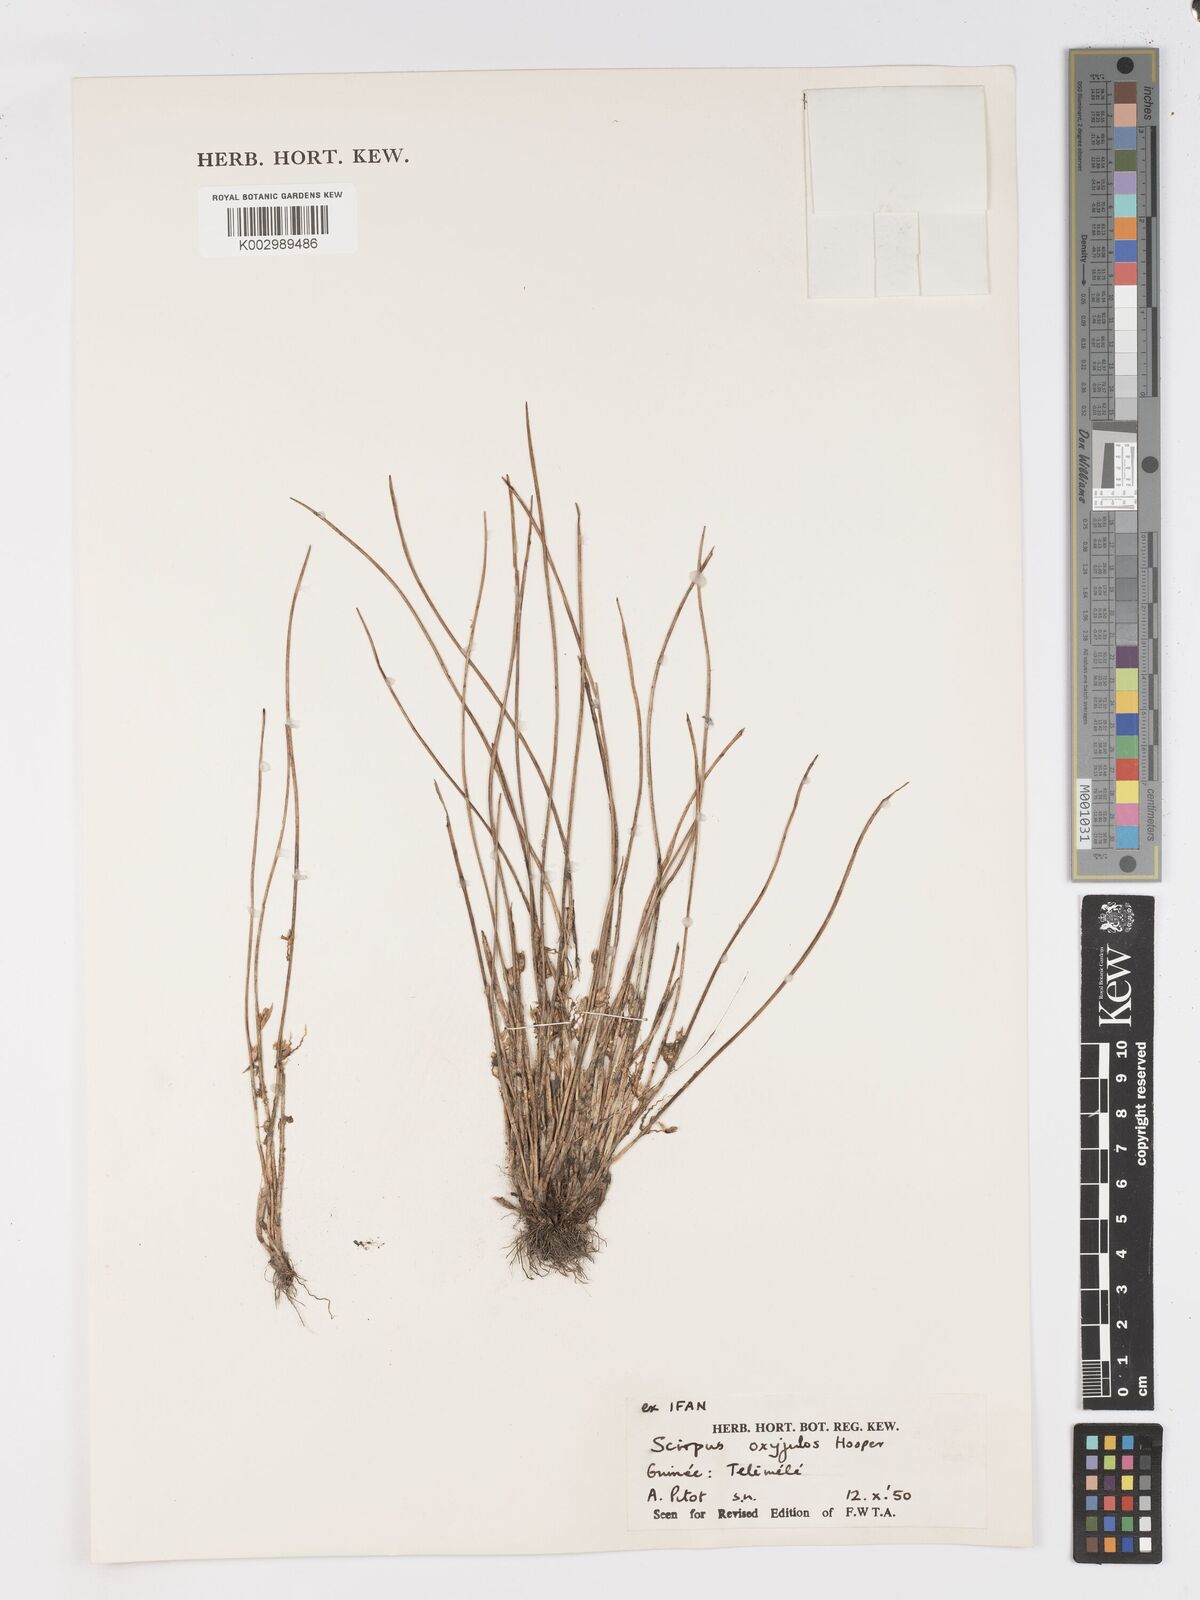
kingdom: Plantae
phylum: Tracheophyta
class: Liliopsida
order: Poales
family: Cyperaceae
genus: Schoenoplectiella
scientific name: Schoenoplectiella oxyjulos
